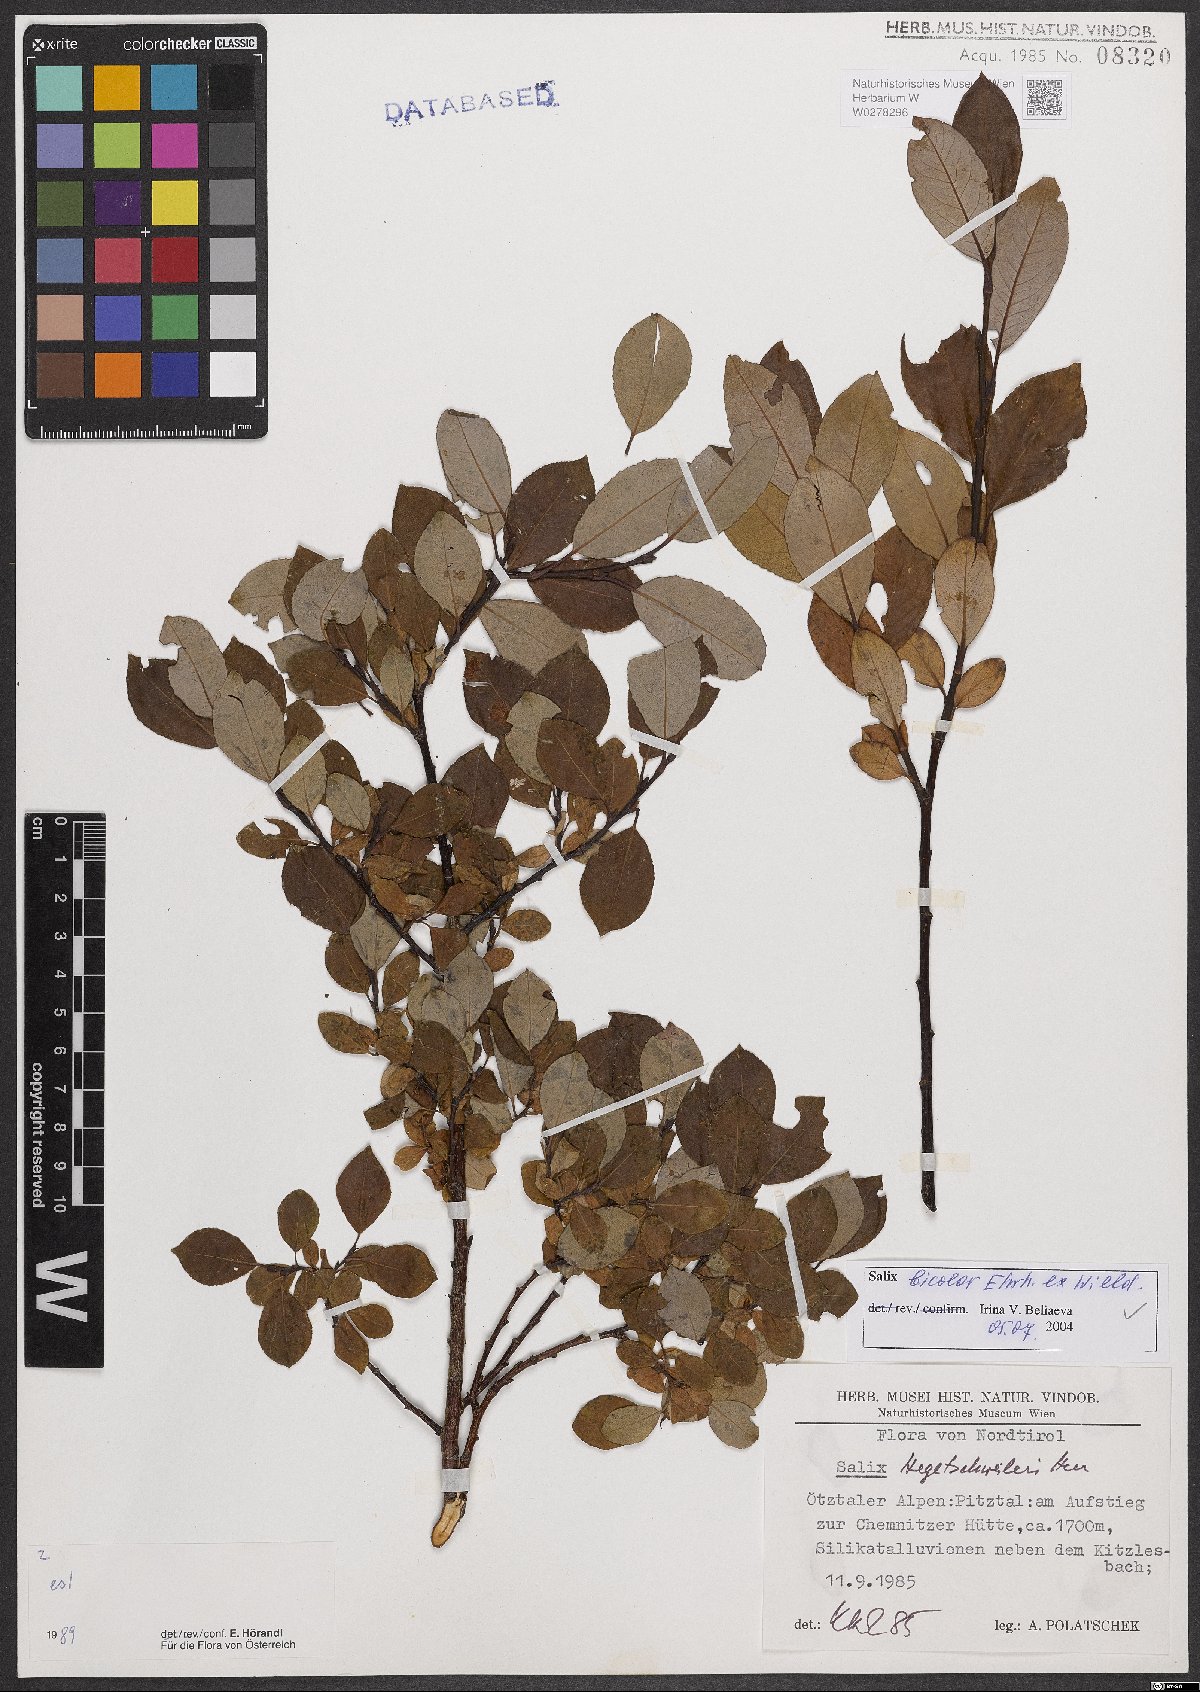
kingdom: Plantae
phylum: Tracheophyta
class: Magnoliopsida
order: Malpighiales
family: Salicaceae
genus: Salix
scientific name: Salix bicolor
